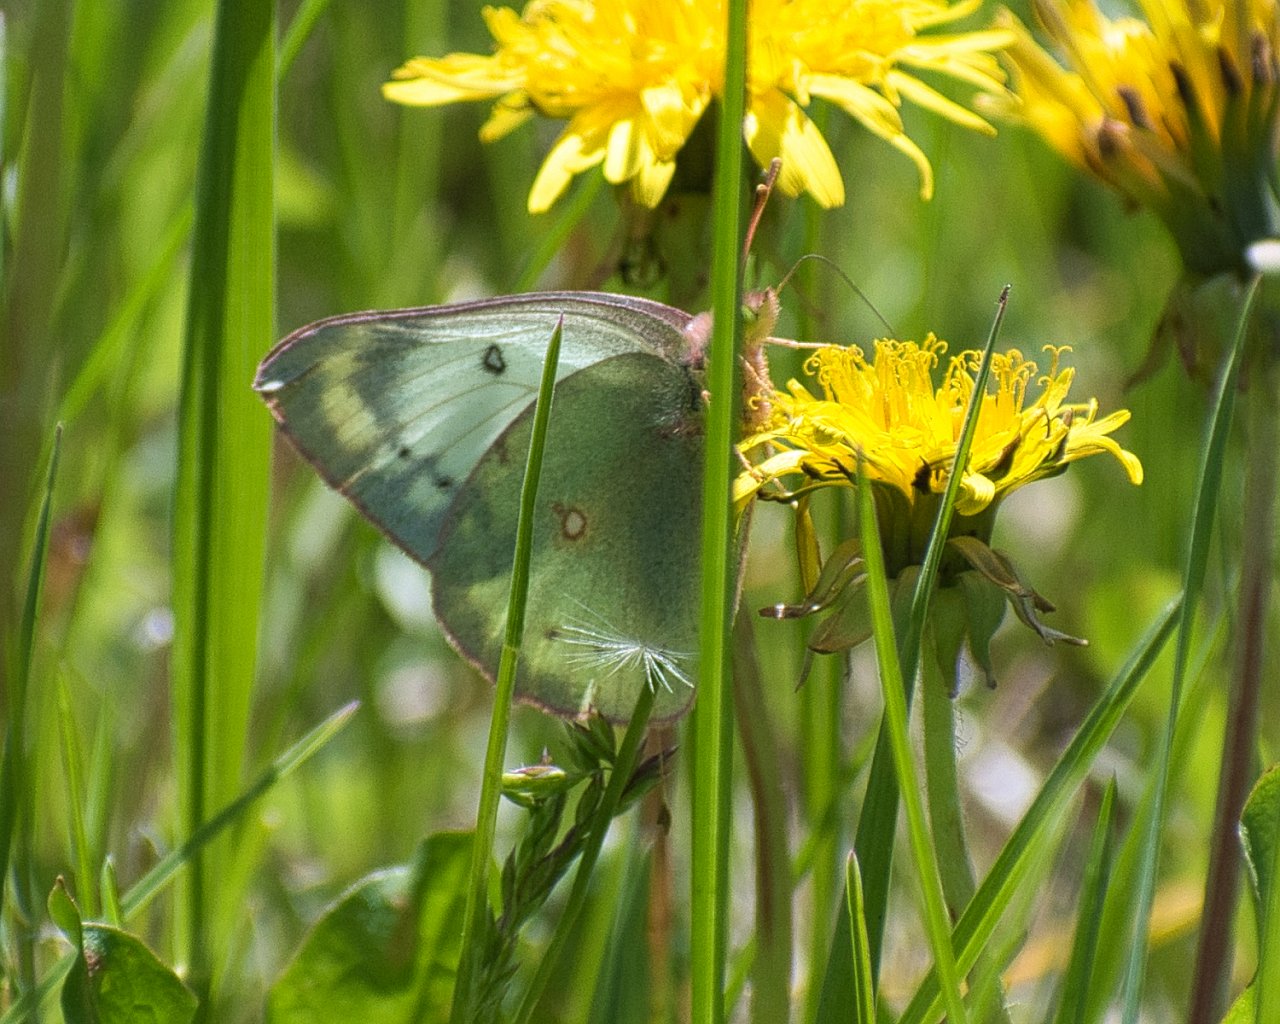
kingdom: Animalia
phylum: Arthropoda
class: Insecta
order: Lepidoptera
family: Pieridae
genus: Colias
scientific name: Colias philodice
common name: Clouded Sulphur
